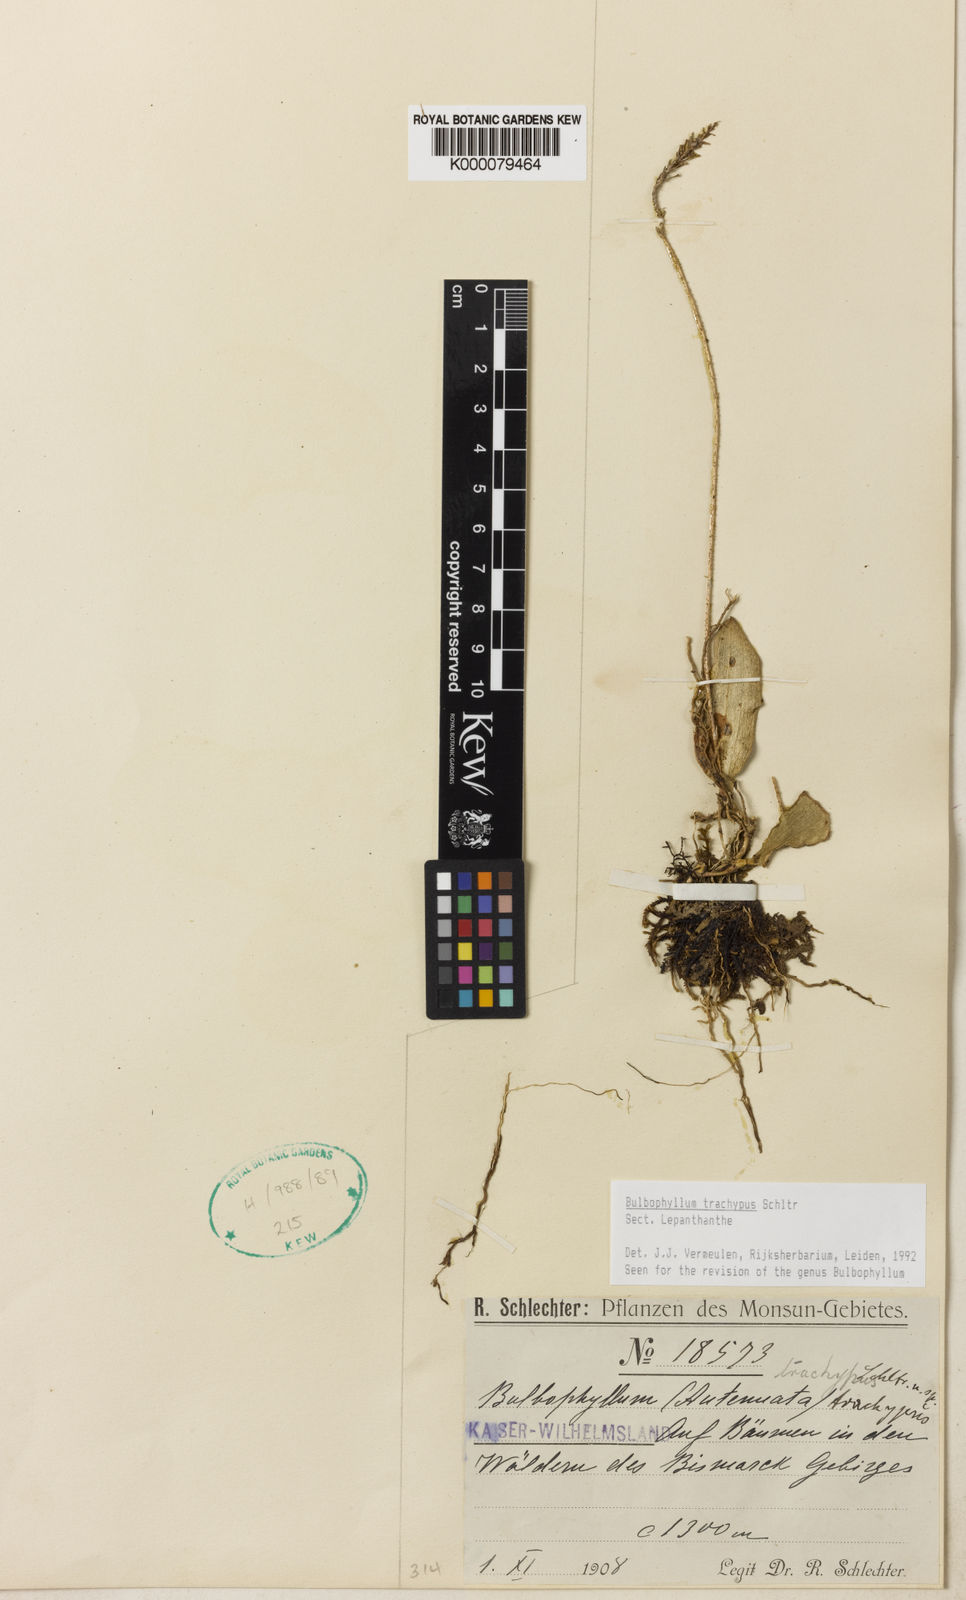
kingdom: Plantae
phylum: Tracheophyta
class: Liliopsida
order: Asparagales
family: Orchidaceae
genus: Bulbophyllum
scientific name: Bulbophyllum
